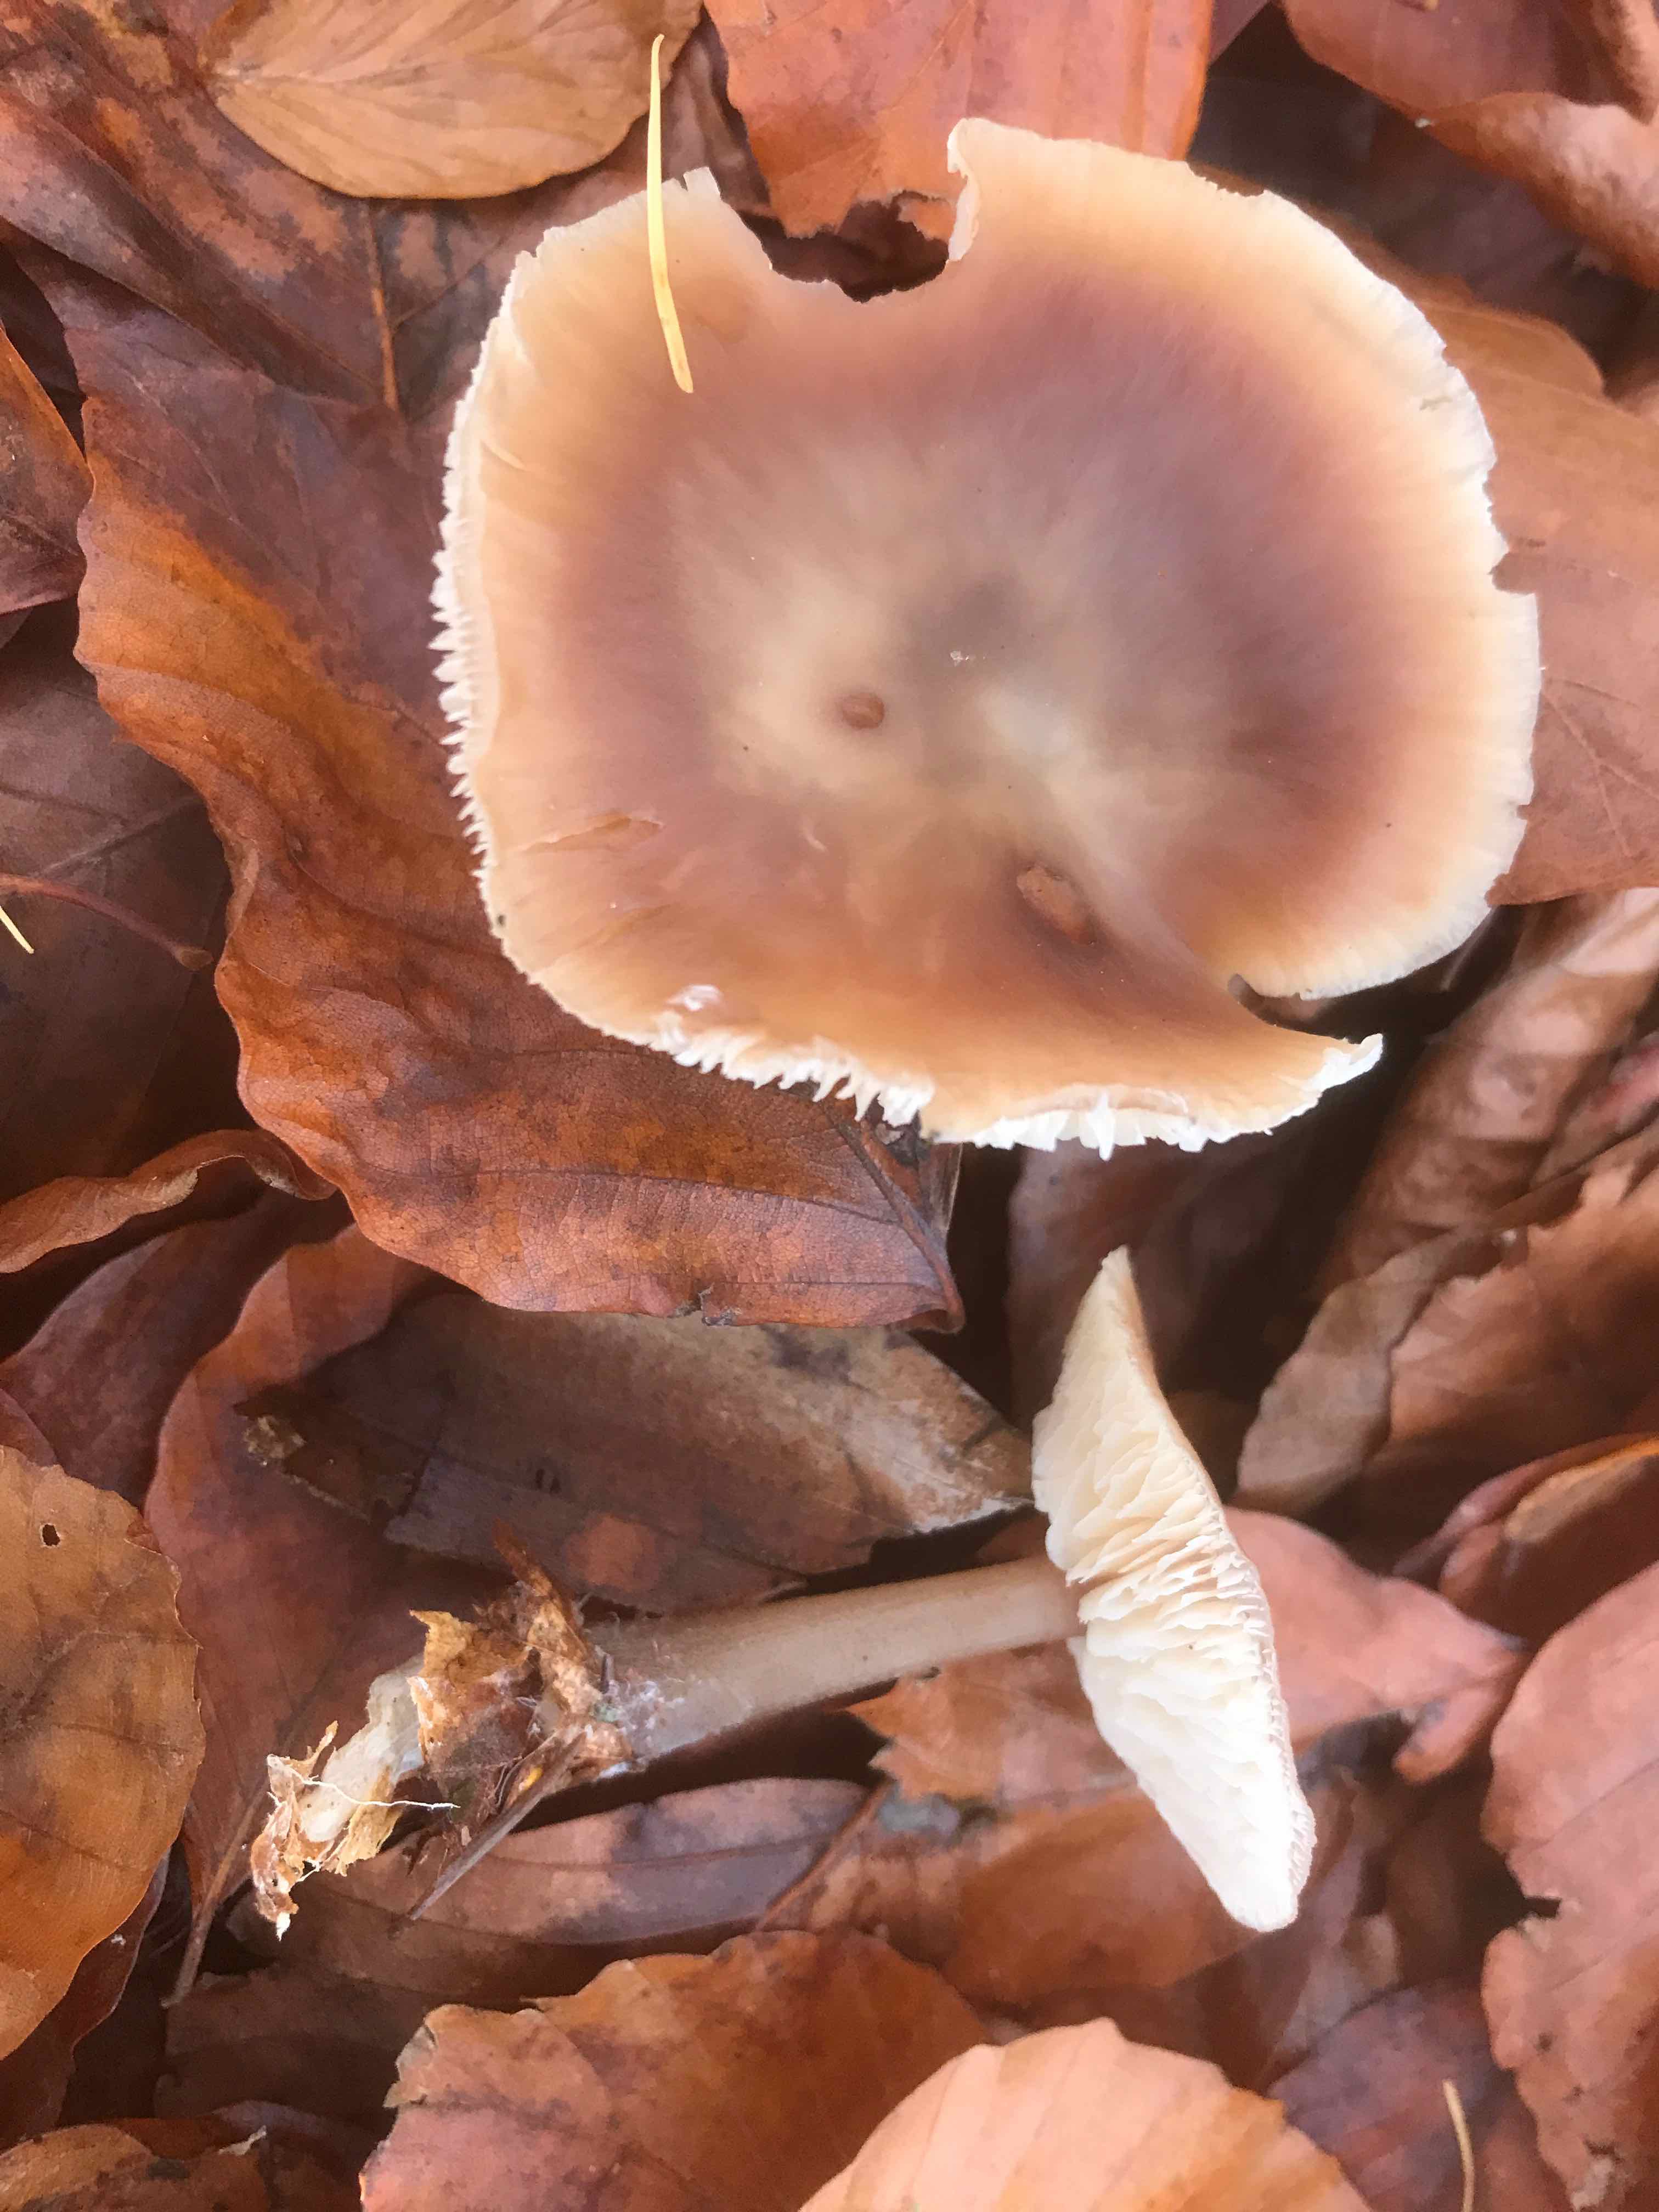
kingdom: Fungi
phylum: Basidiomycota
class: Agaricomycetes
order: Agaricales
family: Omphalotaceae
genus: Rhodocollybia
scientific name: Rhodocollybia asema
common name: horngrå fladhat
